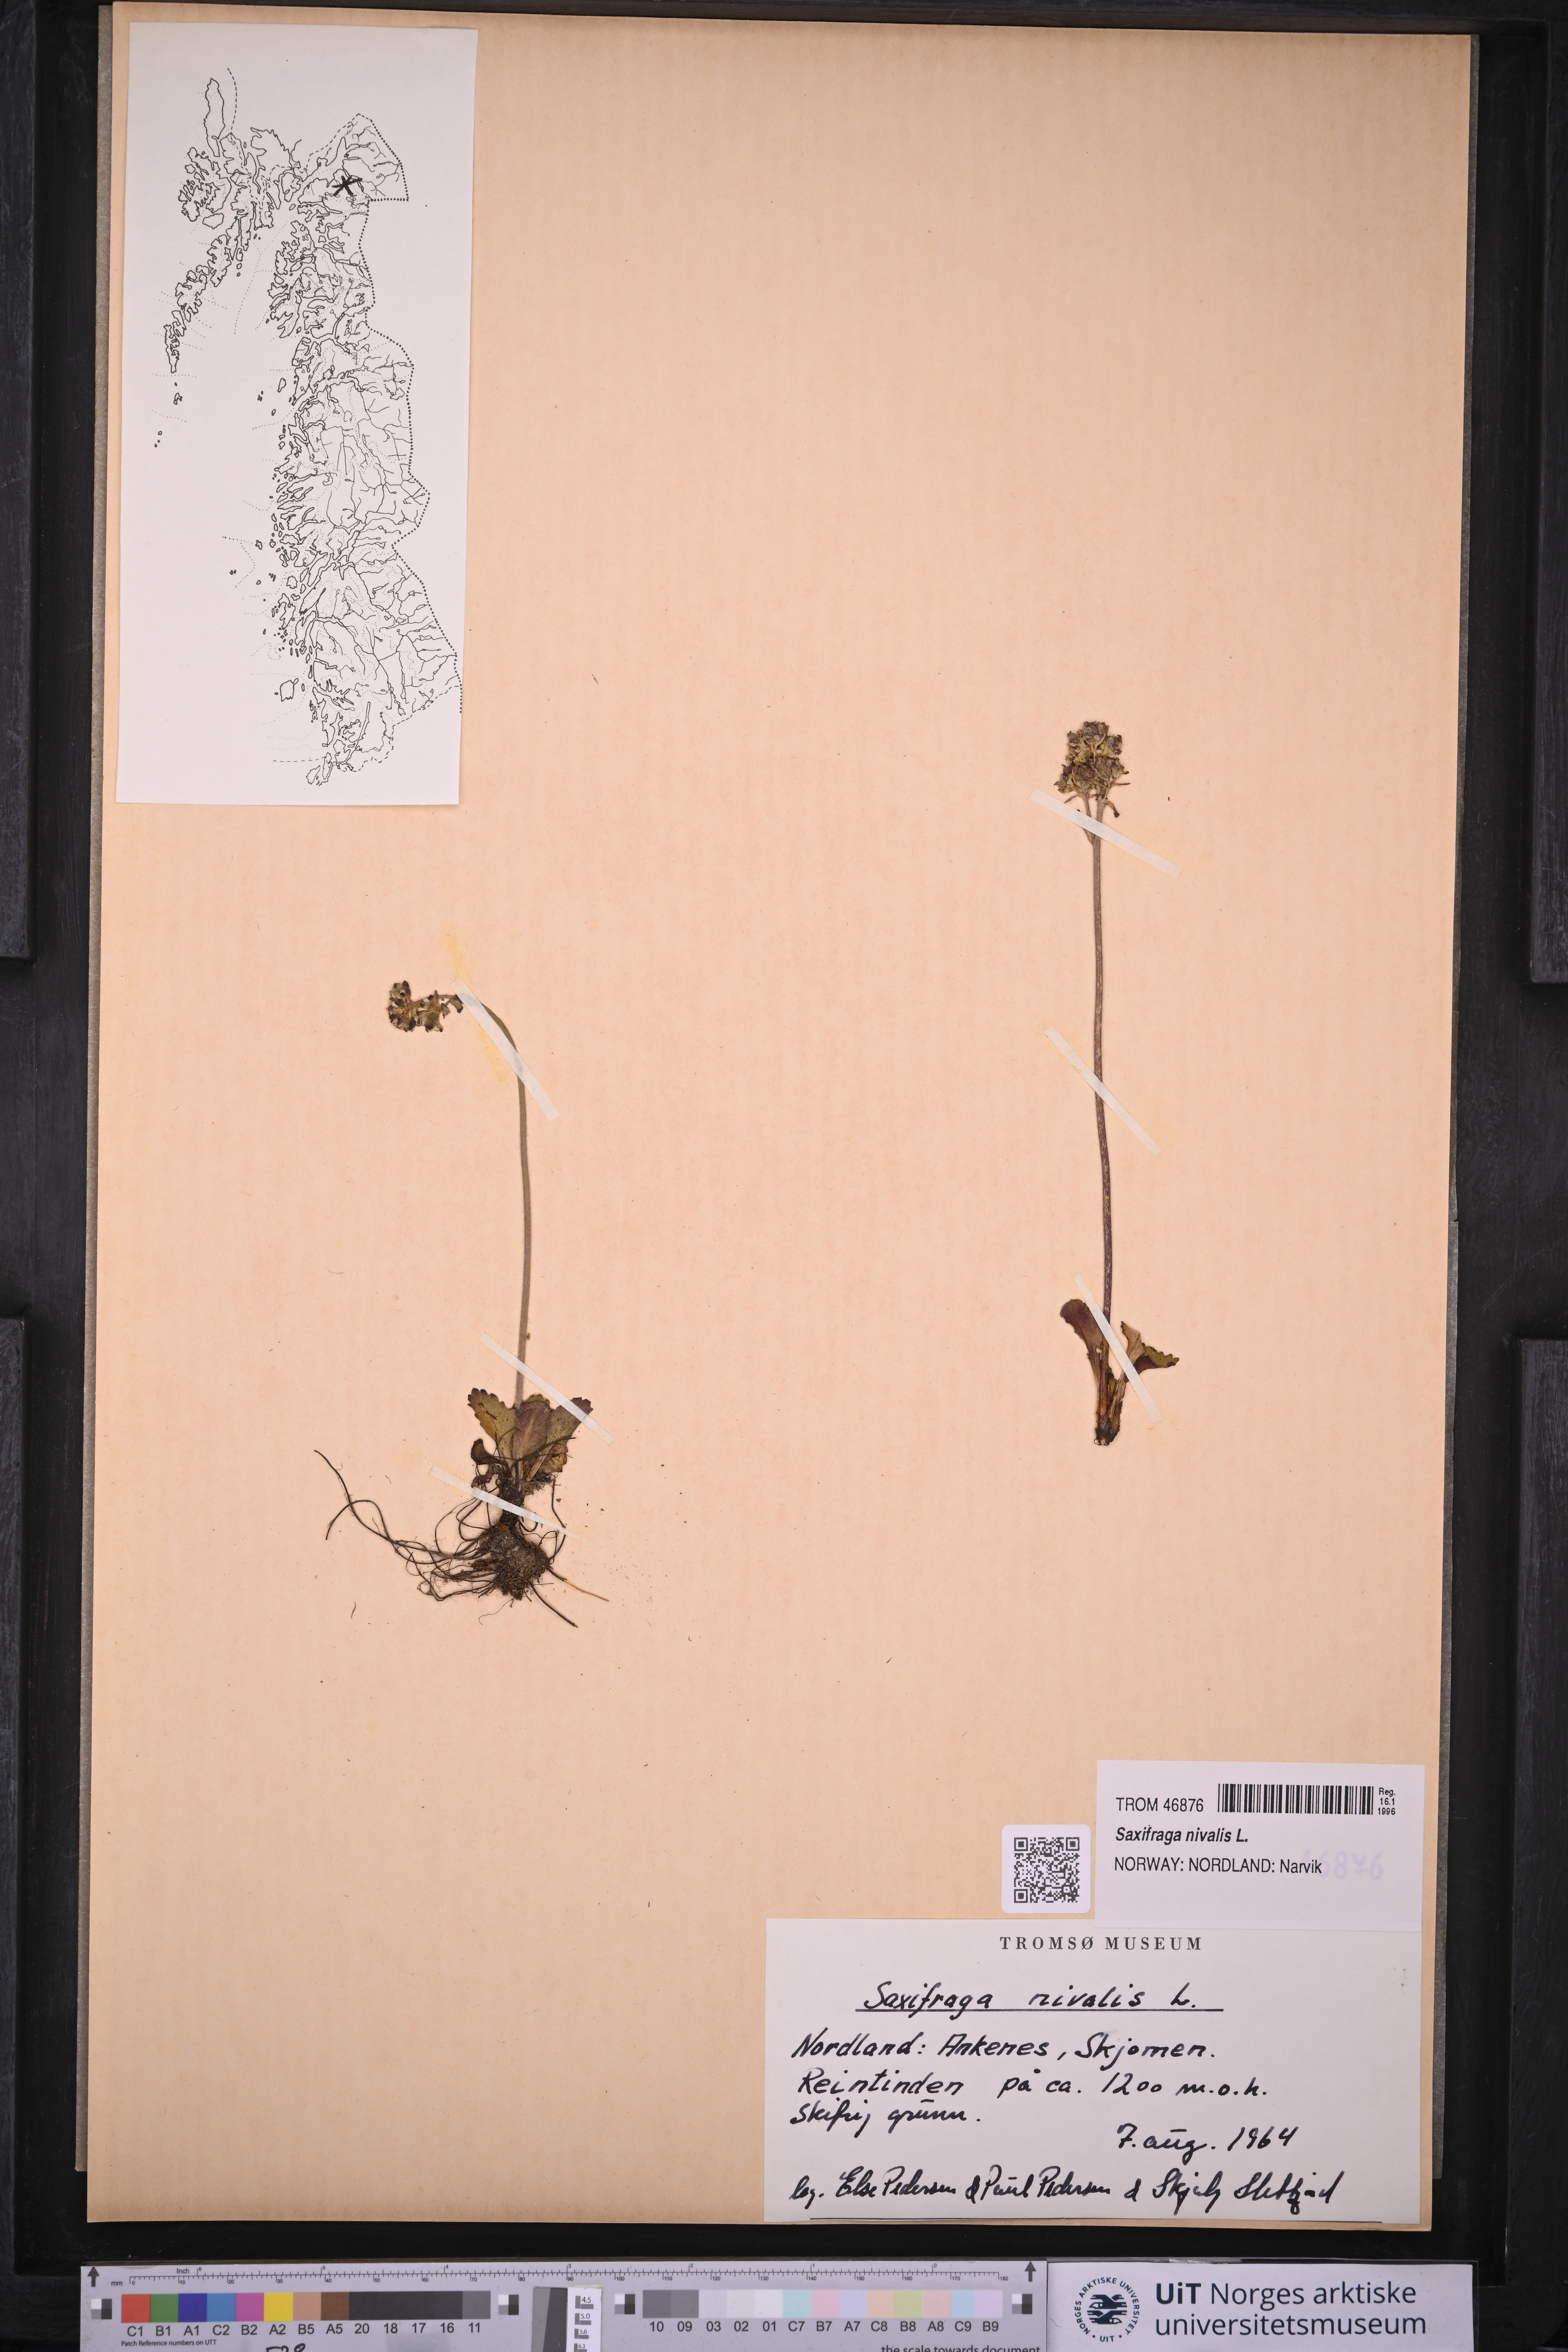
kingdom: Plantae
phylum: Tracheophyta
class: Magnoliopsida
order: Saxifragales
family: Saxifragaceae
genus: Micranthes
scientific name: Micranthes nivalis
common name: Alpine saxifrage
